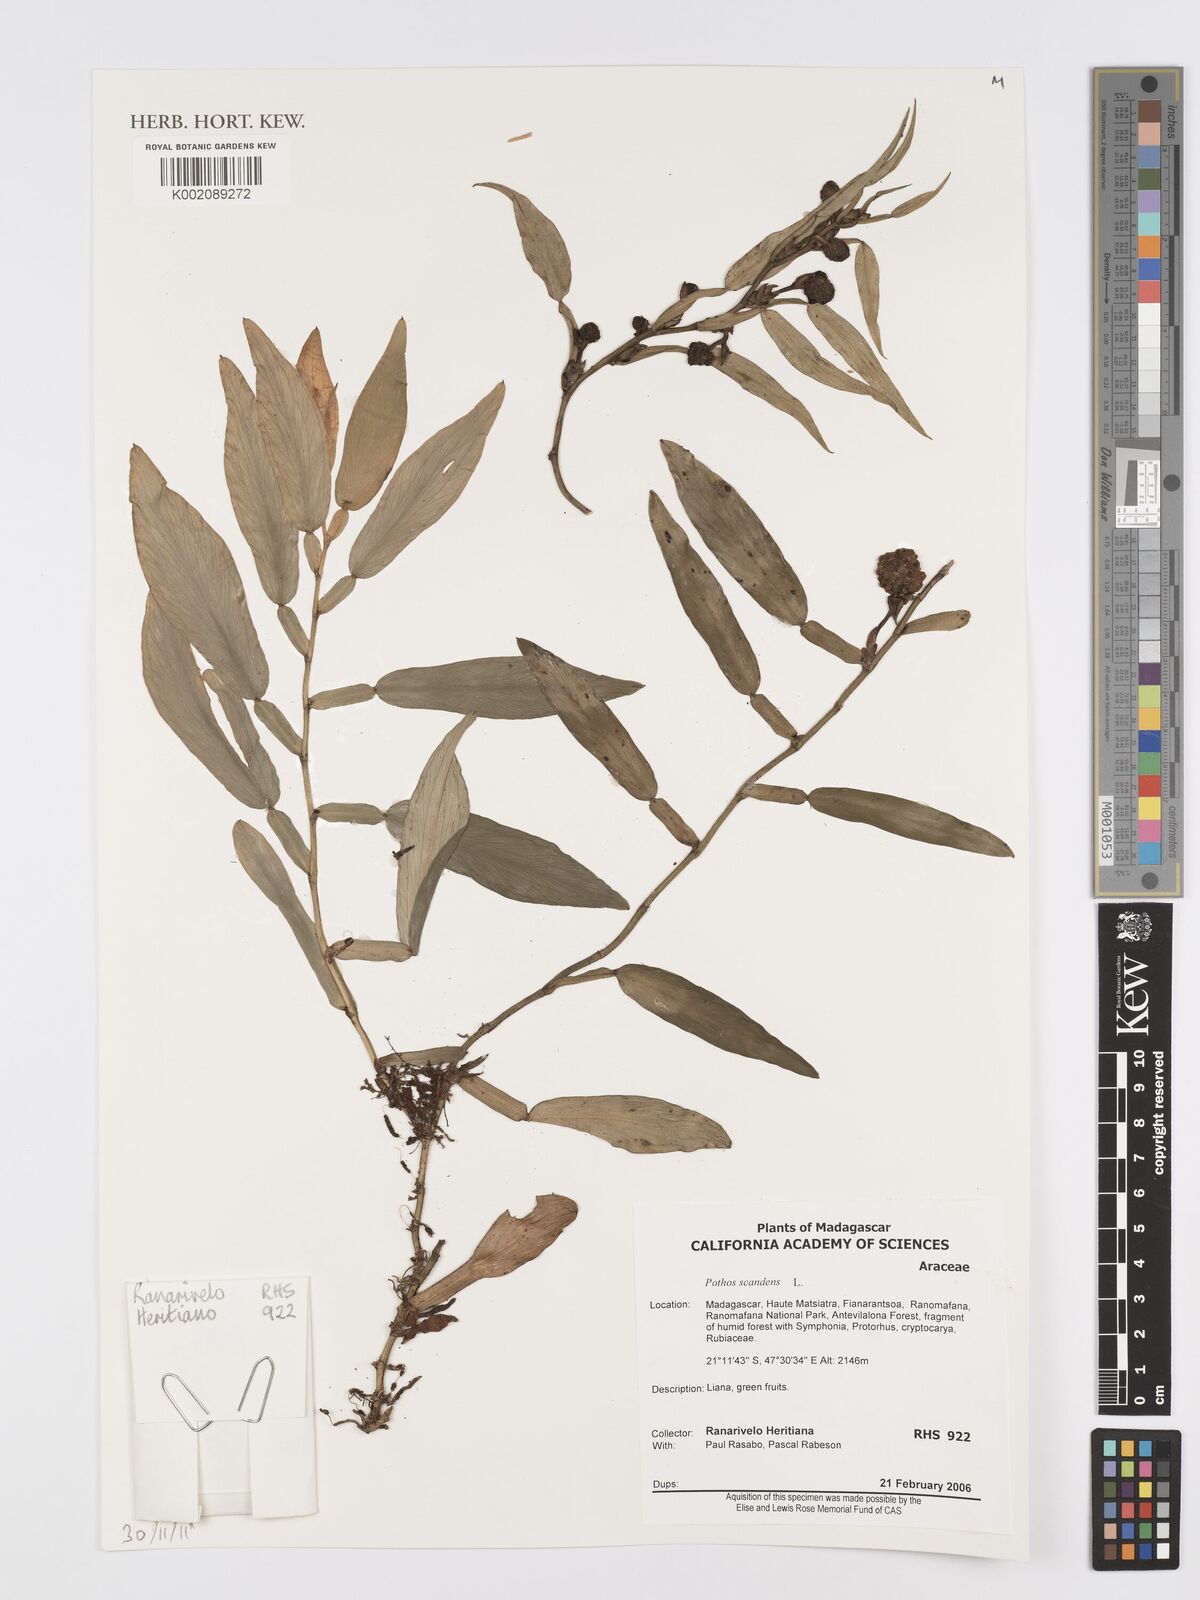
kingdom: Plantae
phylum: Tracheophyta
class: Liliopsida
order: Alismatales
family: Araceae
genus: Pothos
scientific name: Pothos scandens
